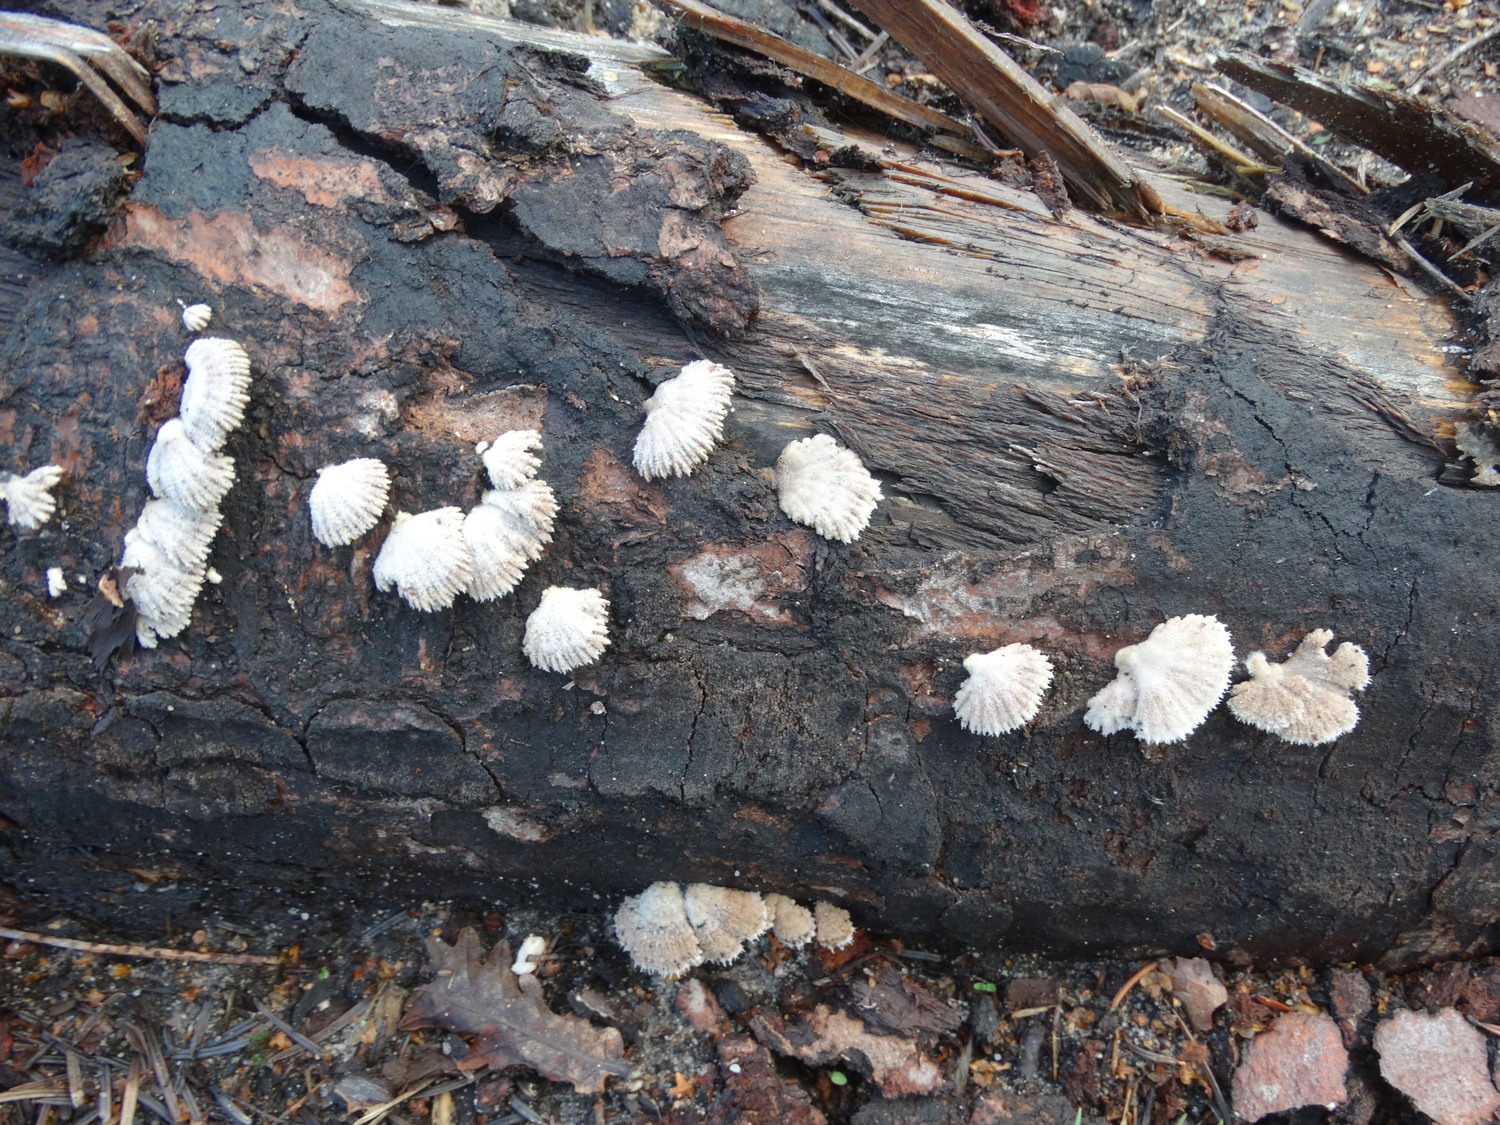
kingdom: Fungi
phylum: Basidiomycota
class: Agaricomycetes
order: Agaricales
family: Schizophyllaceae
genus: Schizophyllum
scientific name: Schizophyllum commune
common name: kløvblad
